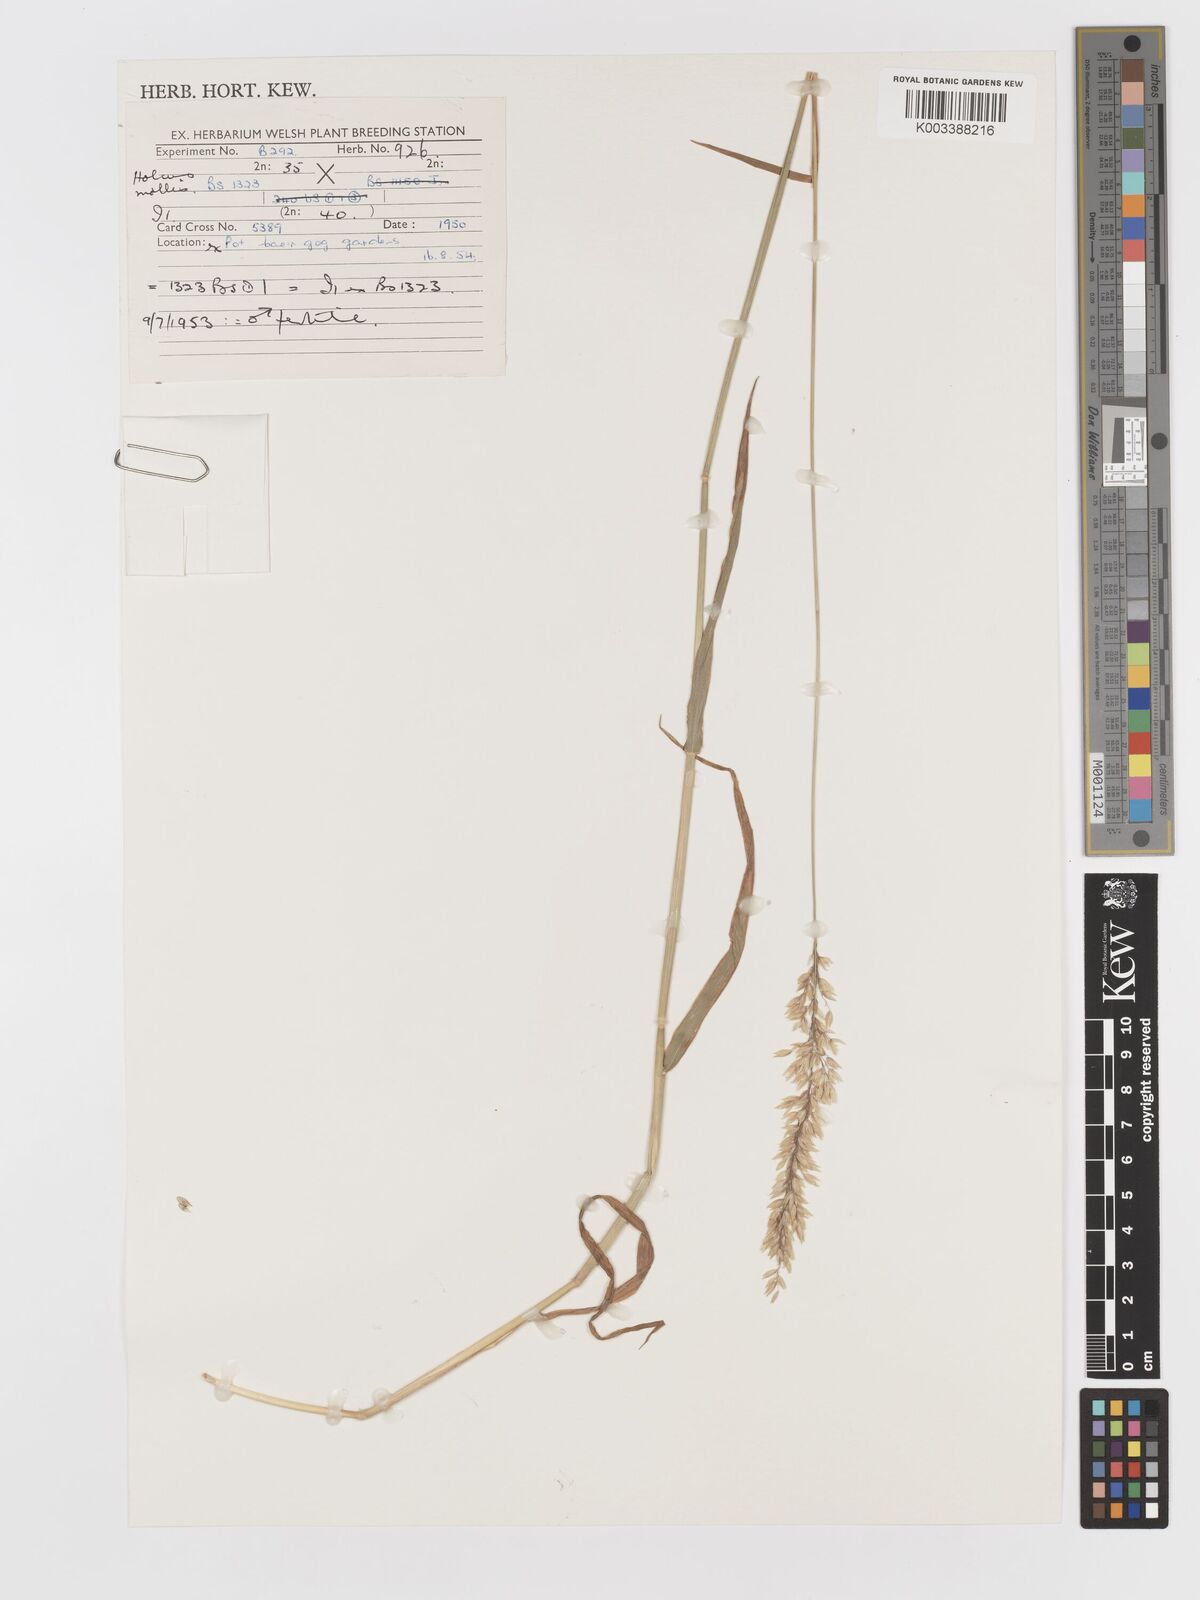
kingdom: Plantae
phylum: Tracheophyta
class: Liliopsida
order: Poales
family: Poaceae
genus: Holcus
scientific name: Holcus mollis
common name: Creeping velvetgrass
